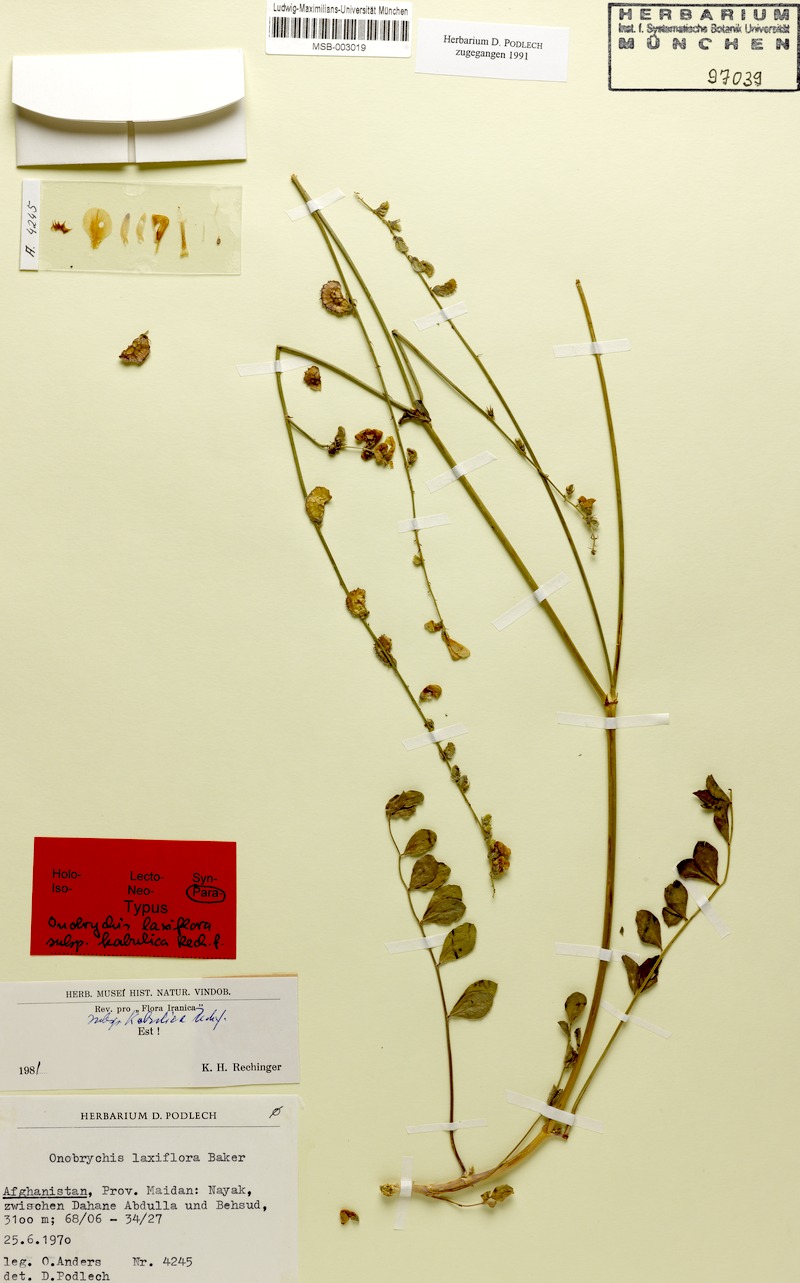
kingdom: Plantae
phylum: Tracheophyta
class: Magnoliopsida
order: Fabales
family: Fabaceae
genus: Onobrychis
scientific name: Onobrychis laxiflora
